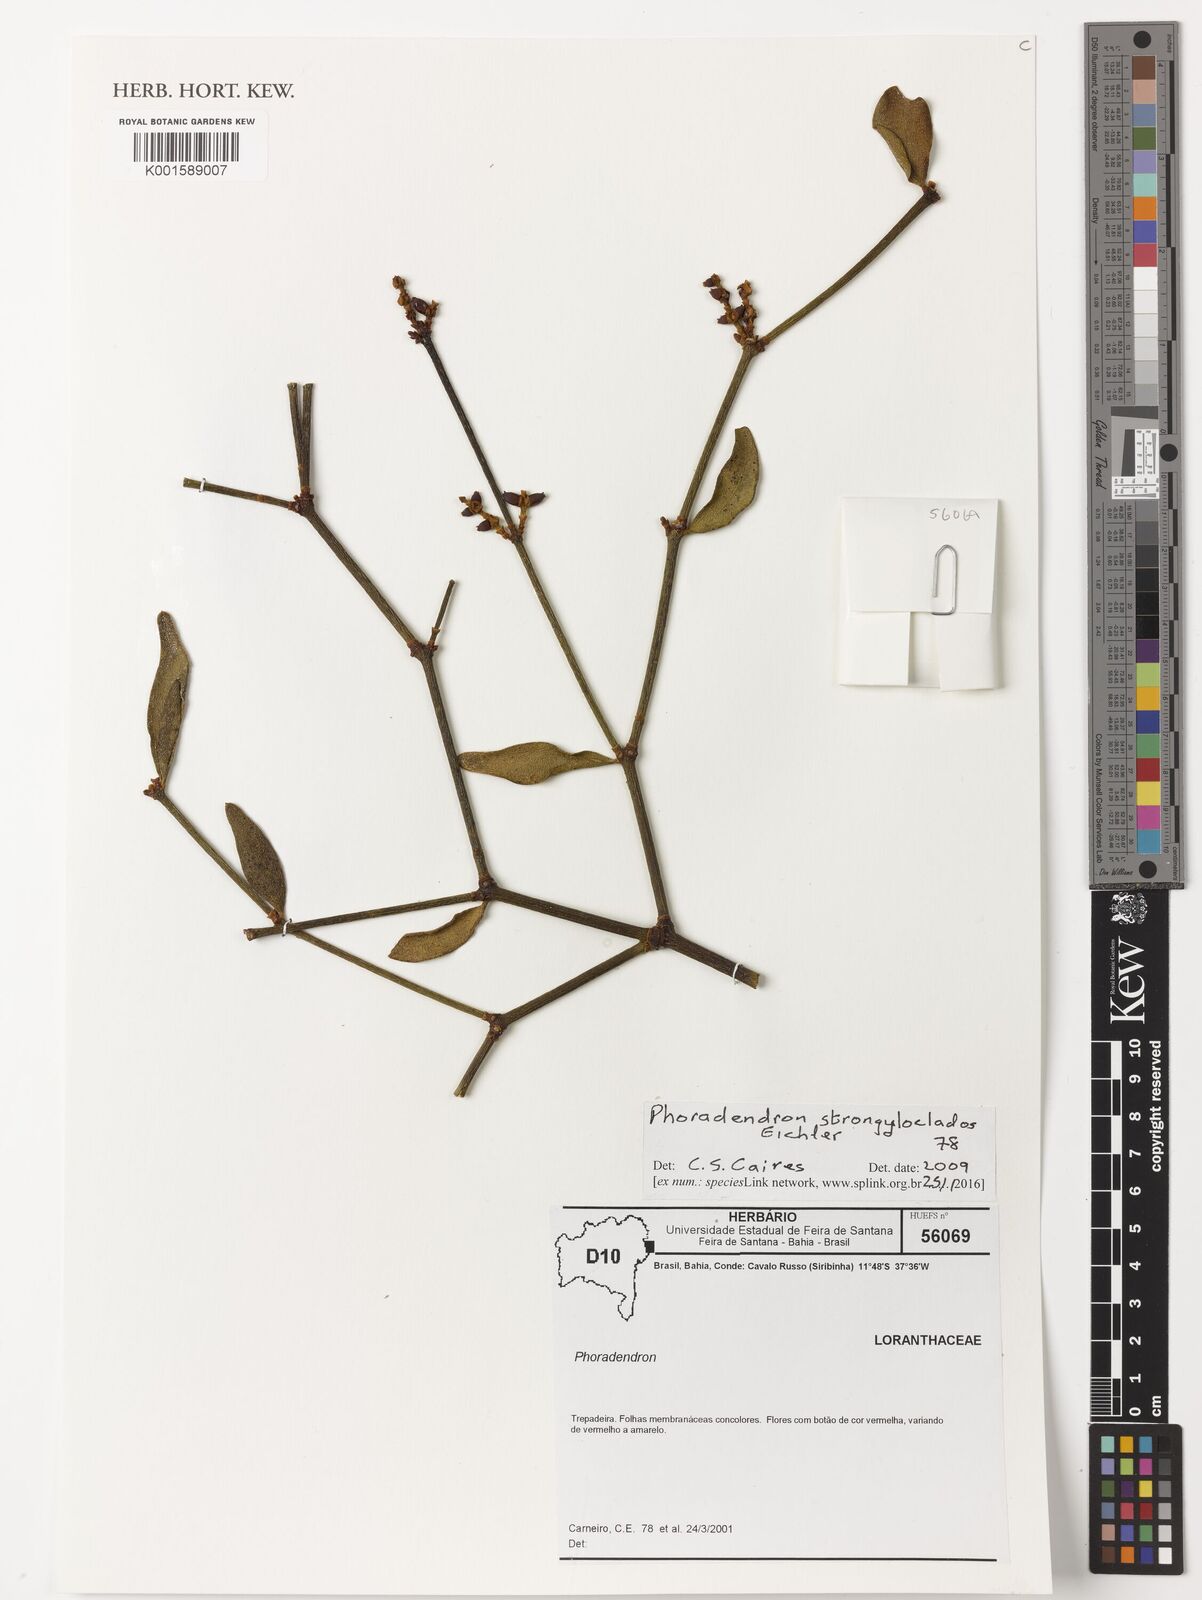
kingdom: Plantae
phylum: Tracheophyta
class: Magnoliopsida
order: Santalales
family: Viscaceae
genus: Phoradendron
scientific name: Phoradendron strongyloclados
